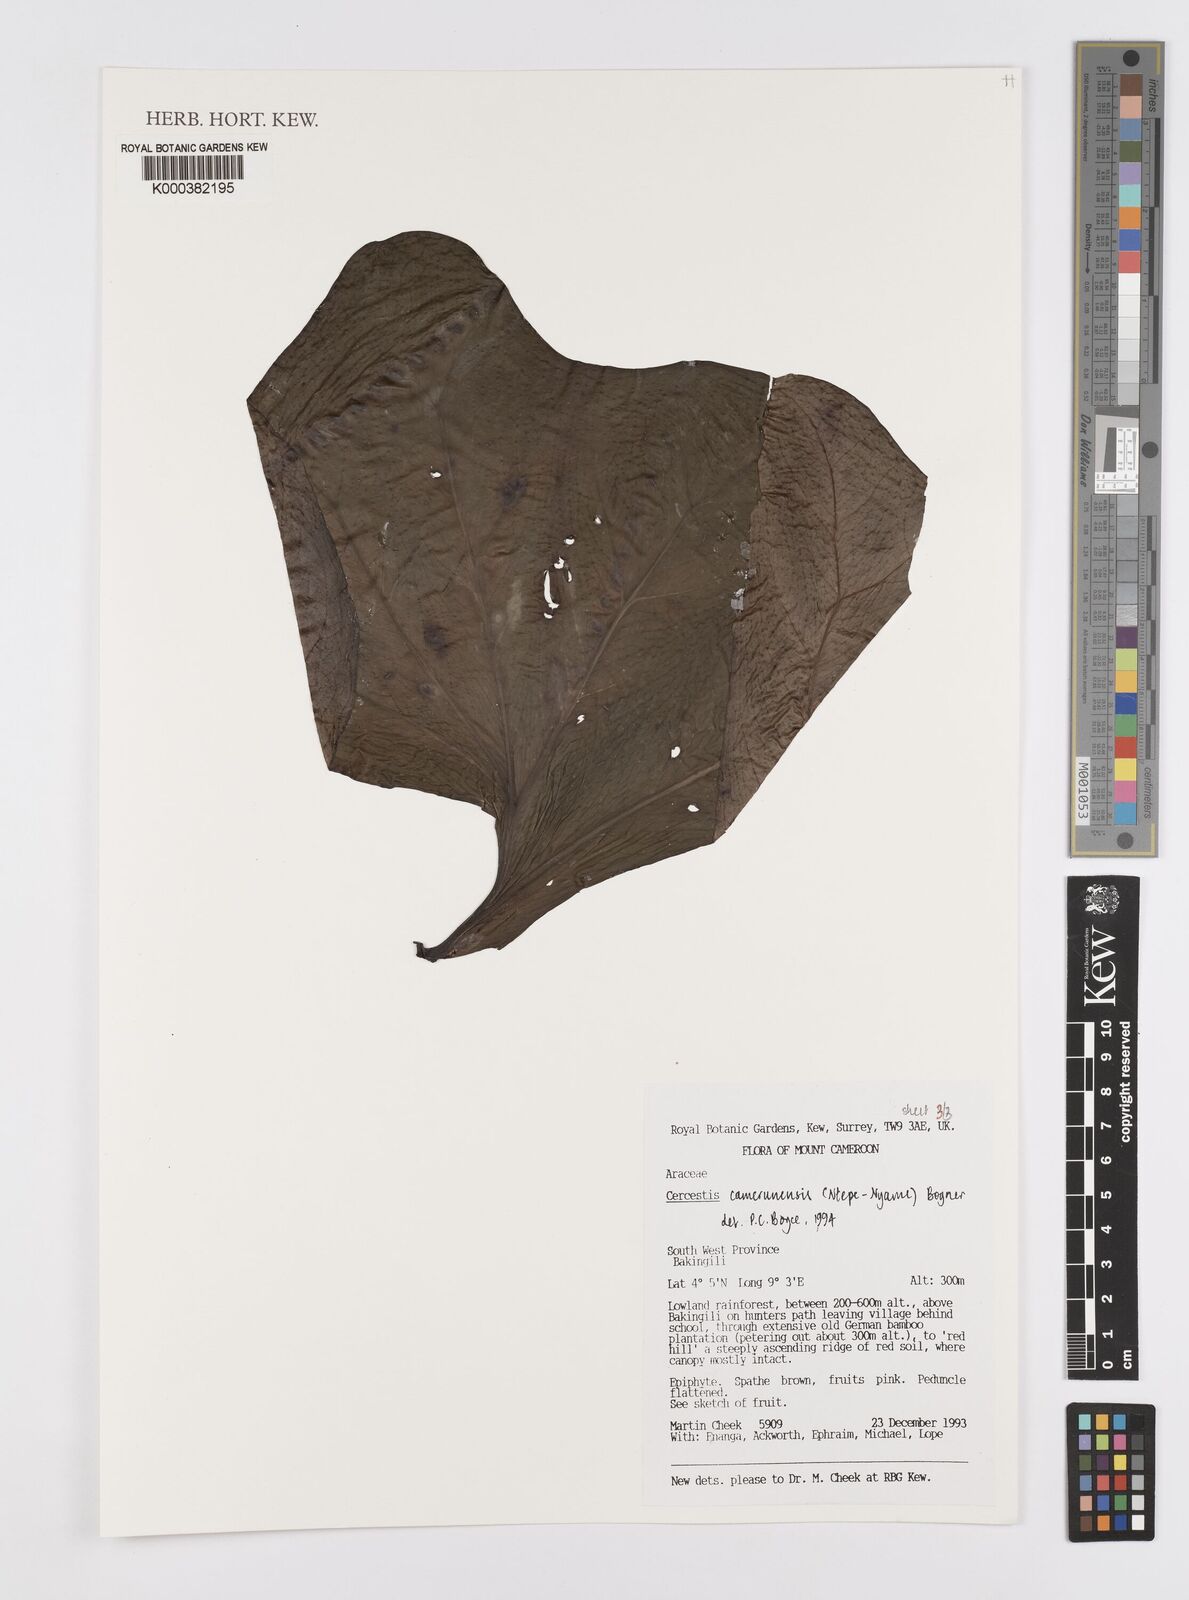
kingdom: Plantae
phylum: Tracheophyta
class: Liliopsida
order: Alismatales
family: Araceae
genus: Cercestis
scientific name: Cercestis camerunensis
